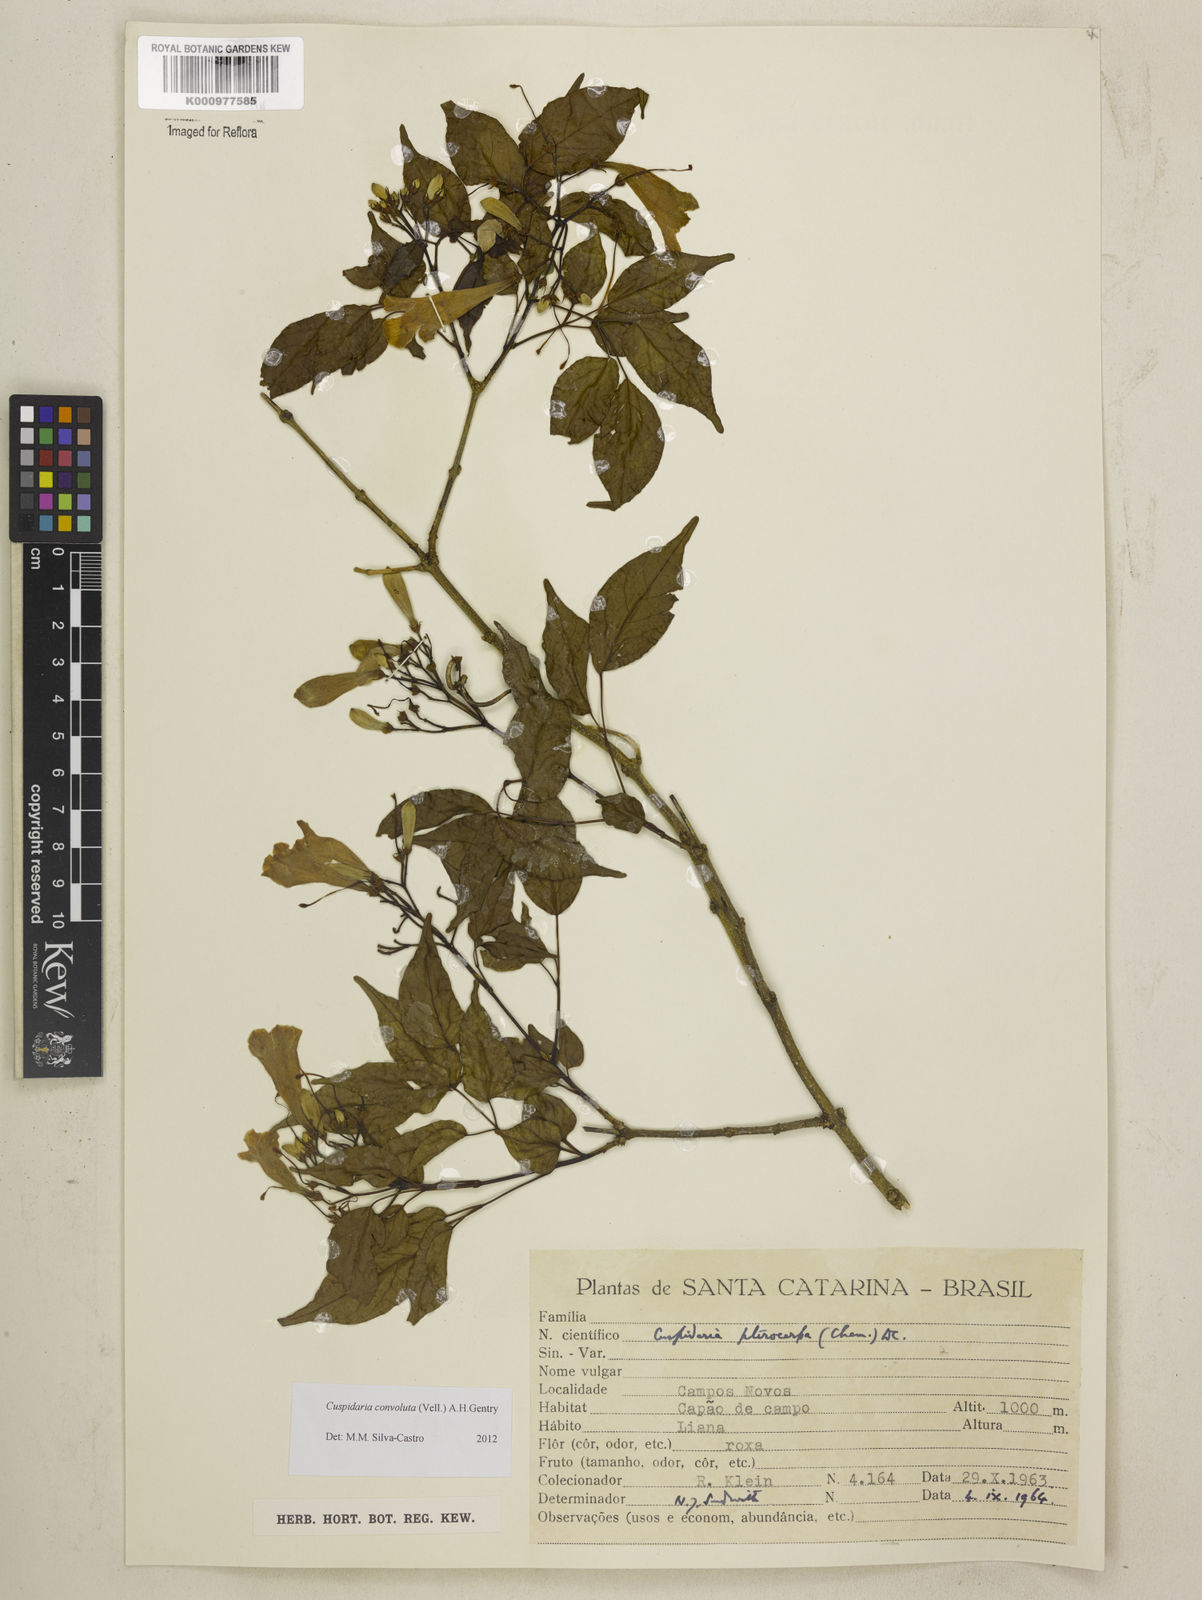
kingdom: Plantae
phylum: Tracheophyta
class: Magnoliopsida
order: Lamiales
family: Bignoniaceae
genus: Cuspidaria
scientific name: Cuspidaria convoluta
